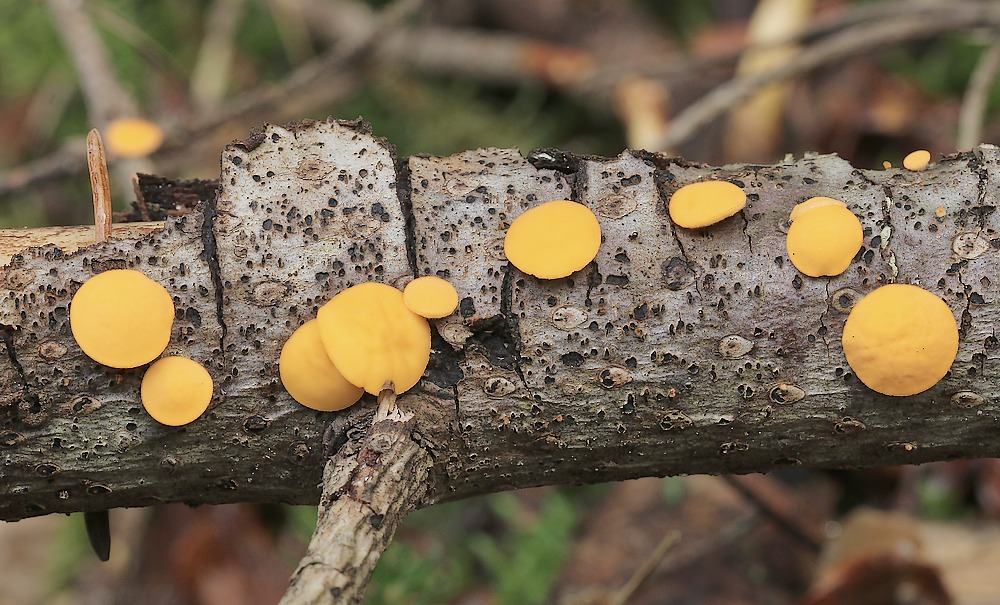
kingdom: Fungi
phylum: Ascomycota
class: Pezizomycetes
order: Pezizales
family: Sarcoscyphaceae
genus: Pithya
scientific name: Pithya vulgaris
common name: stor dukatbæger
